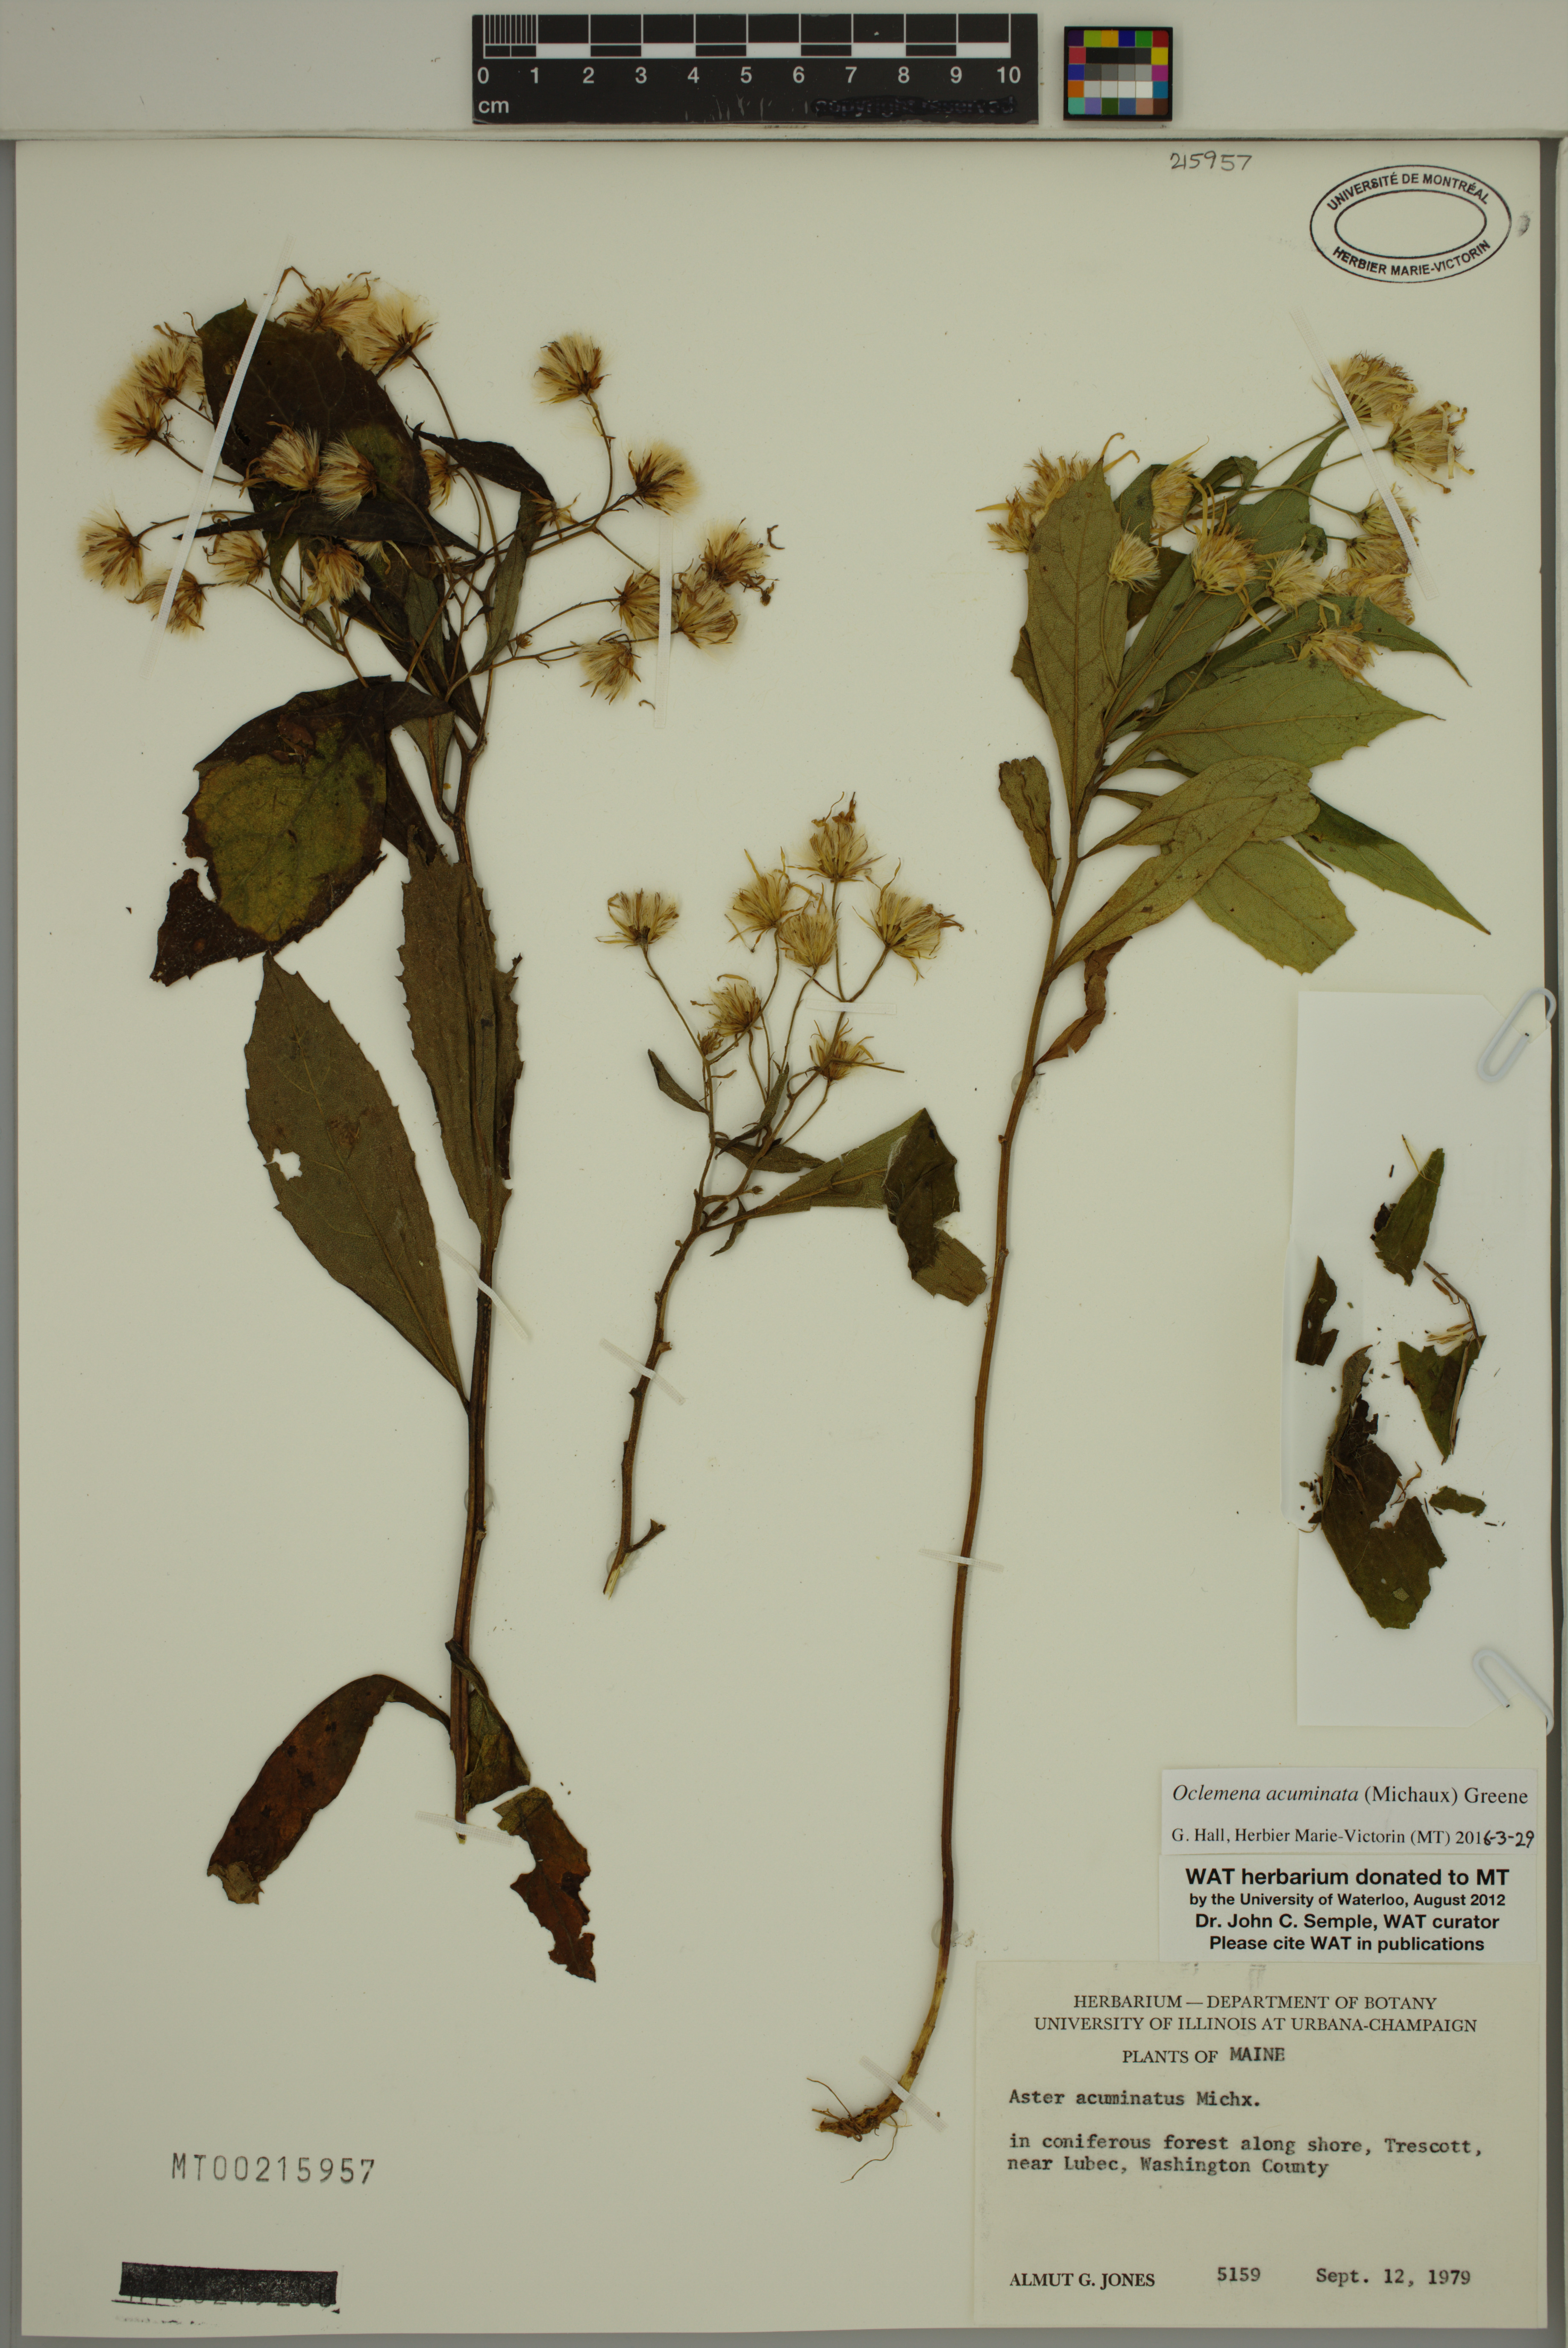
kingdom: Plantae
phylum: Tracheophyta
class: Magnoliopsida
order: Asterales
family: Asteraceae
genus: Oclemena
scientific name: Oclemena acuminata
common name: Mountain aster
